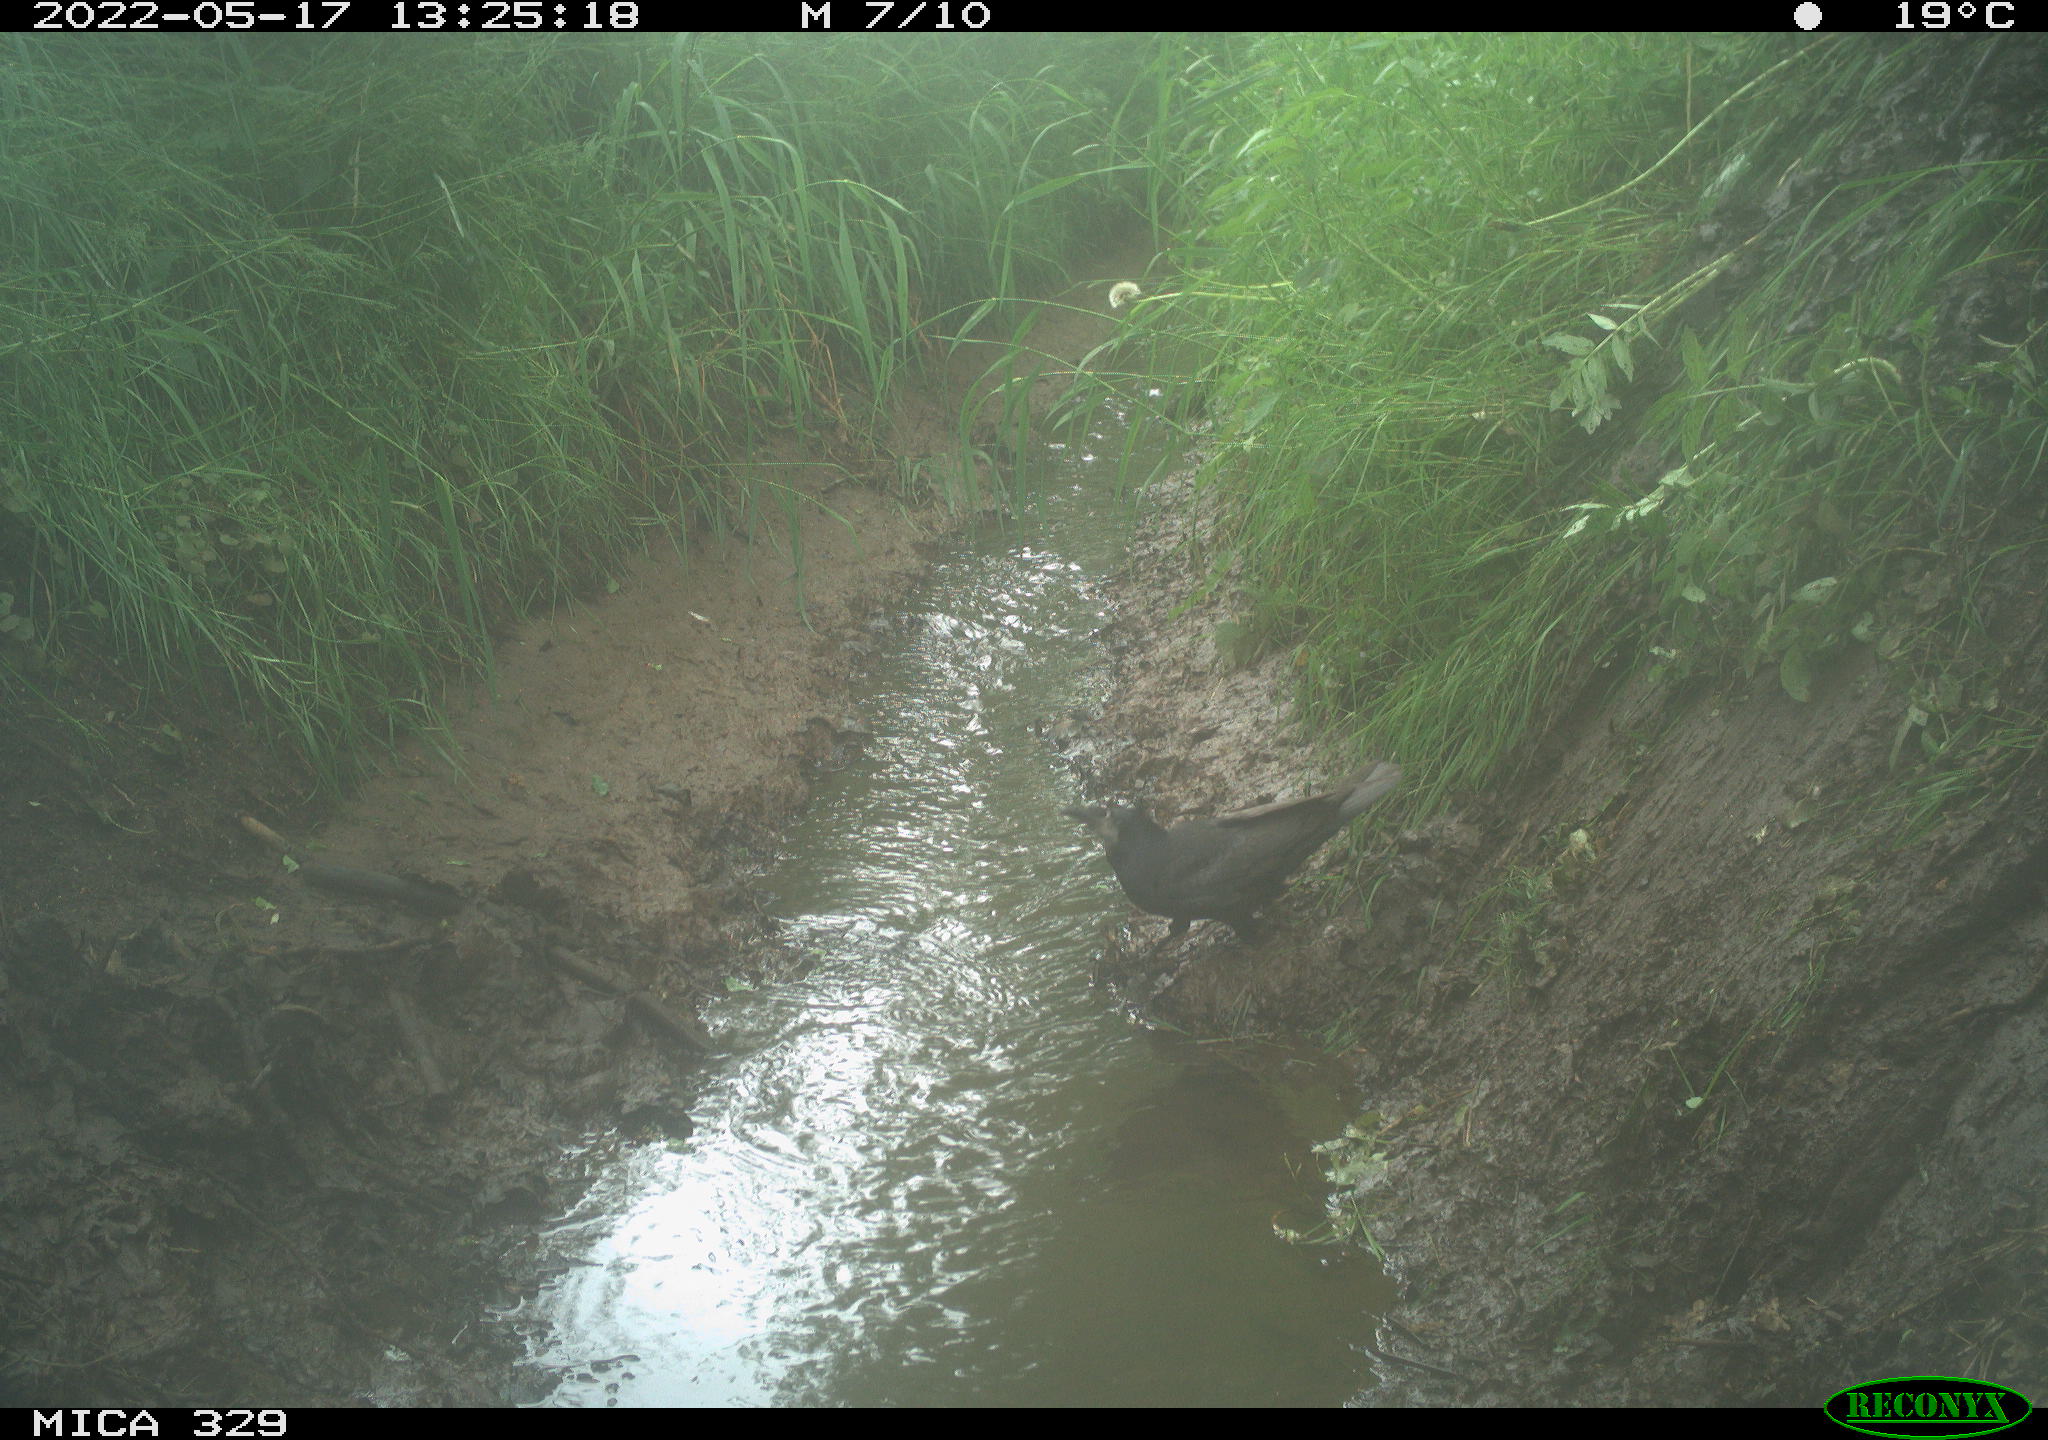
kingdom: Animalia
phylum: Chordata
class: Aves
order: Passeriformes
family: Corvidae
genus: Corvus
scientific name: Corvus corone
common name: Carrion crow
